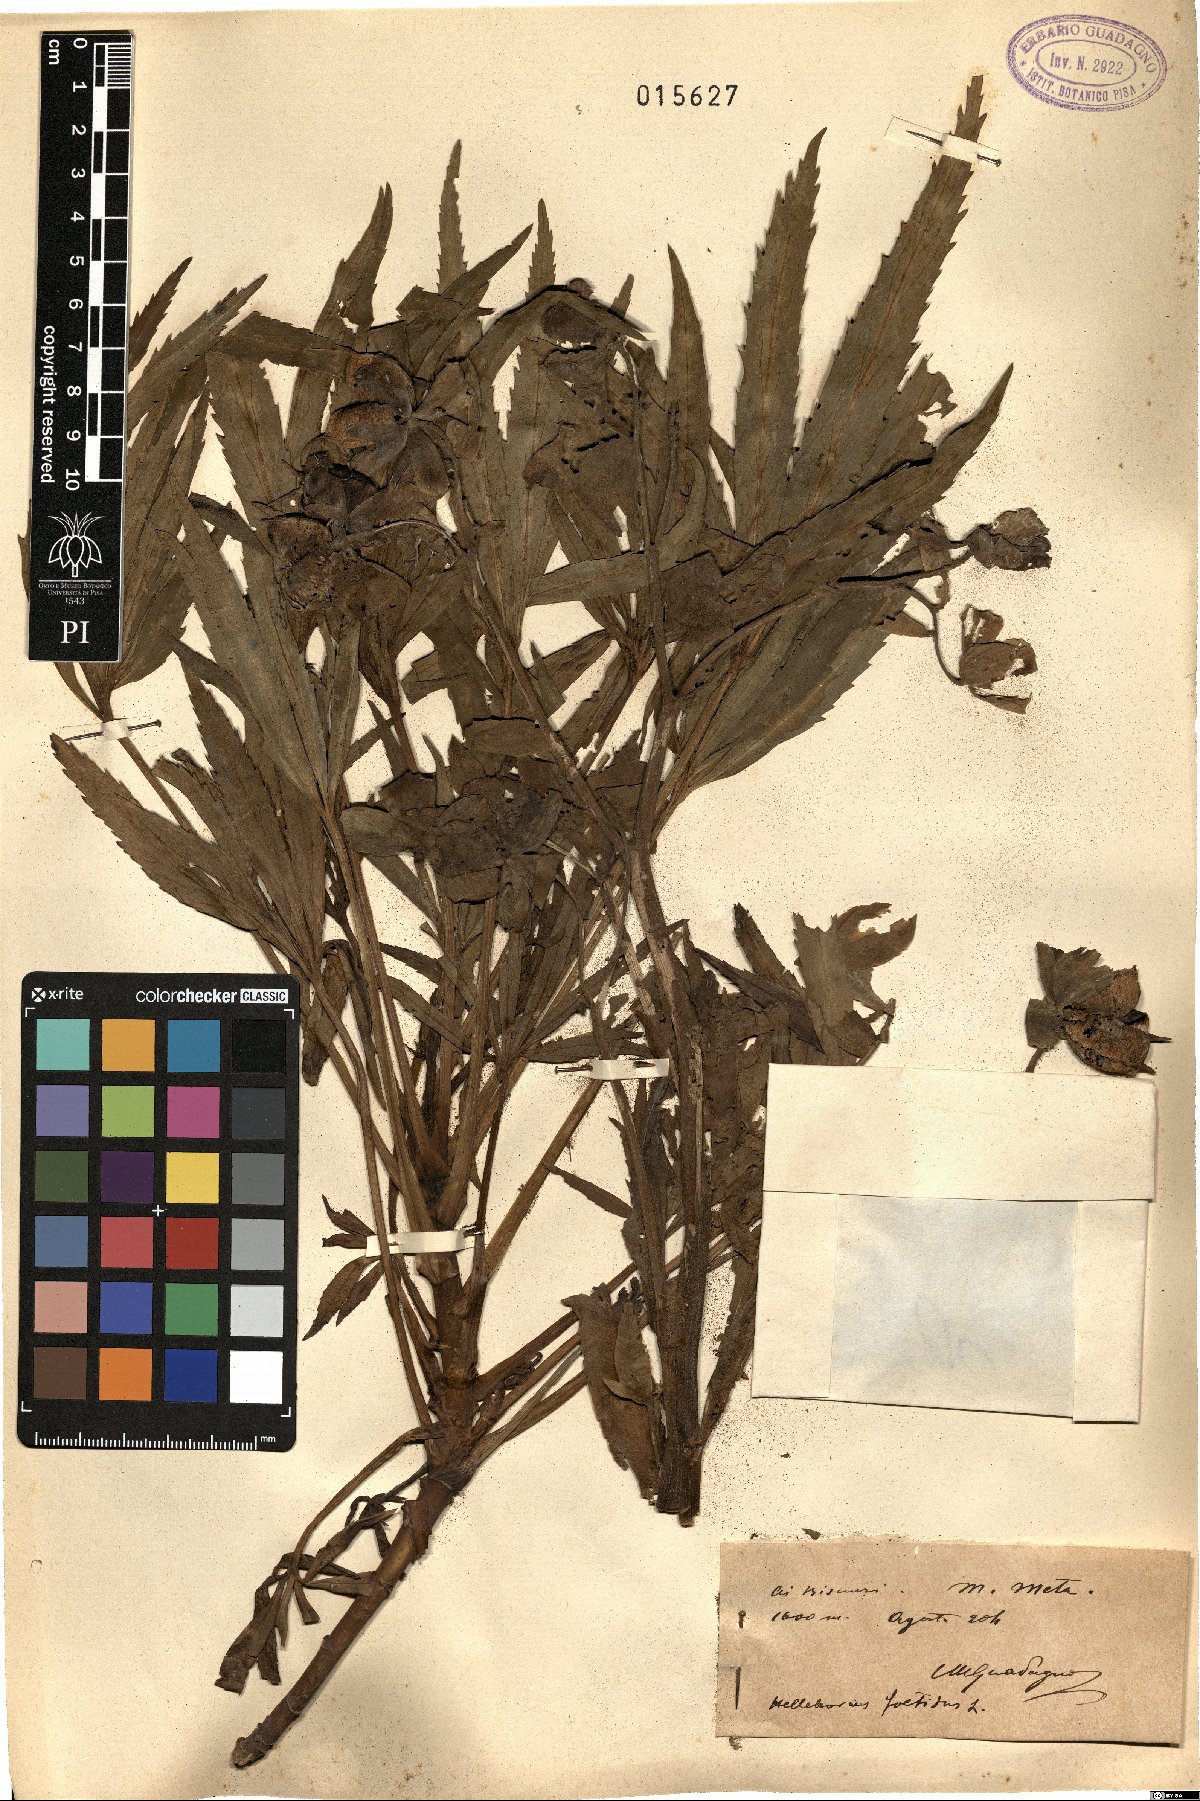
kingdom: Plantae
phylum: Tracheophyta
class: Magnoliopsida
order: Ranunculales
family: Ranunculaceae
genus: Helleborus
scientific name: Helleborus foetidus
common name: Stinking hellebore
